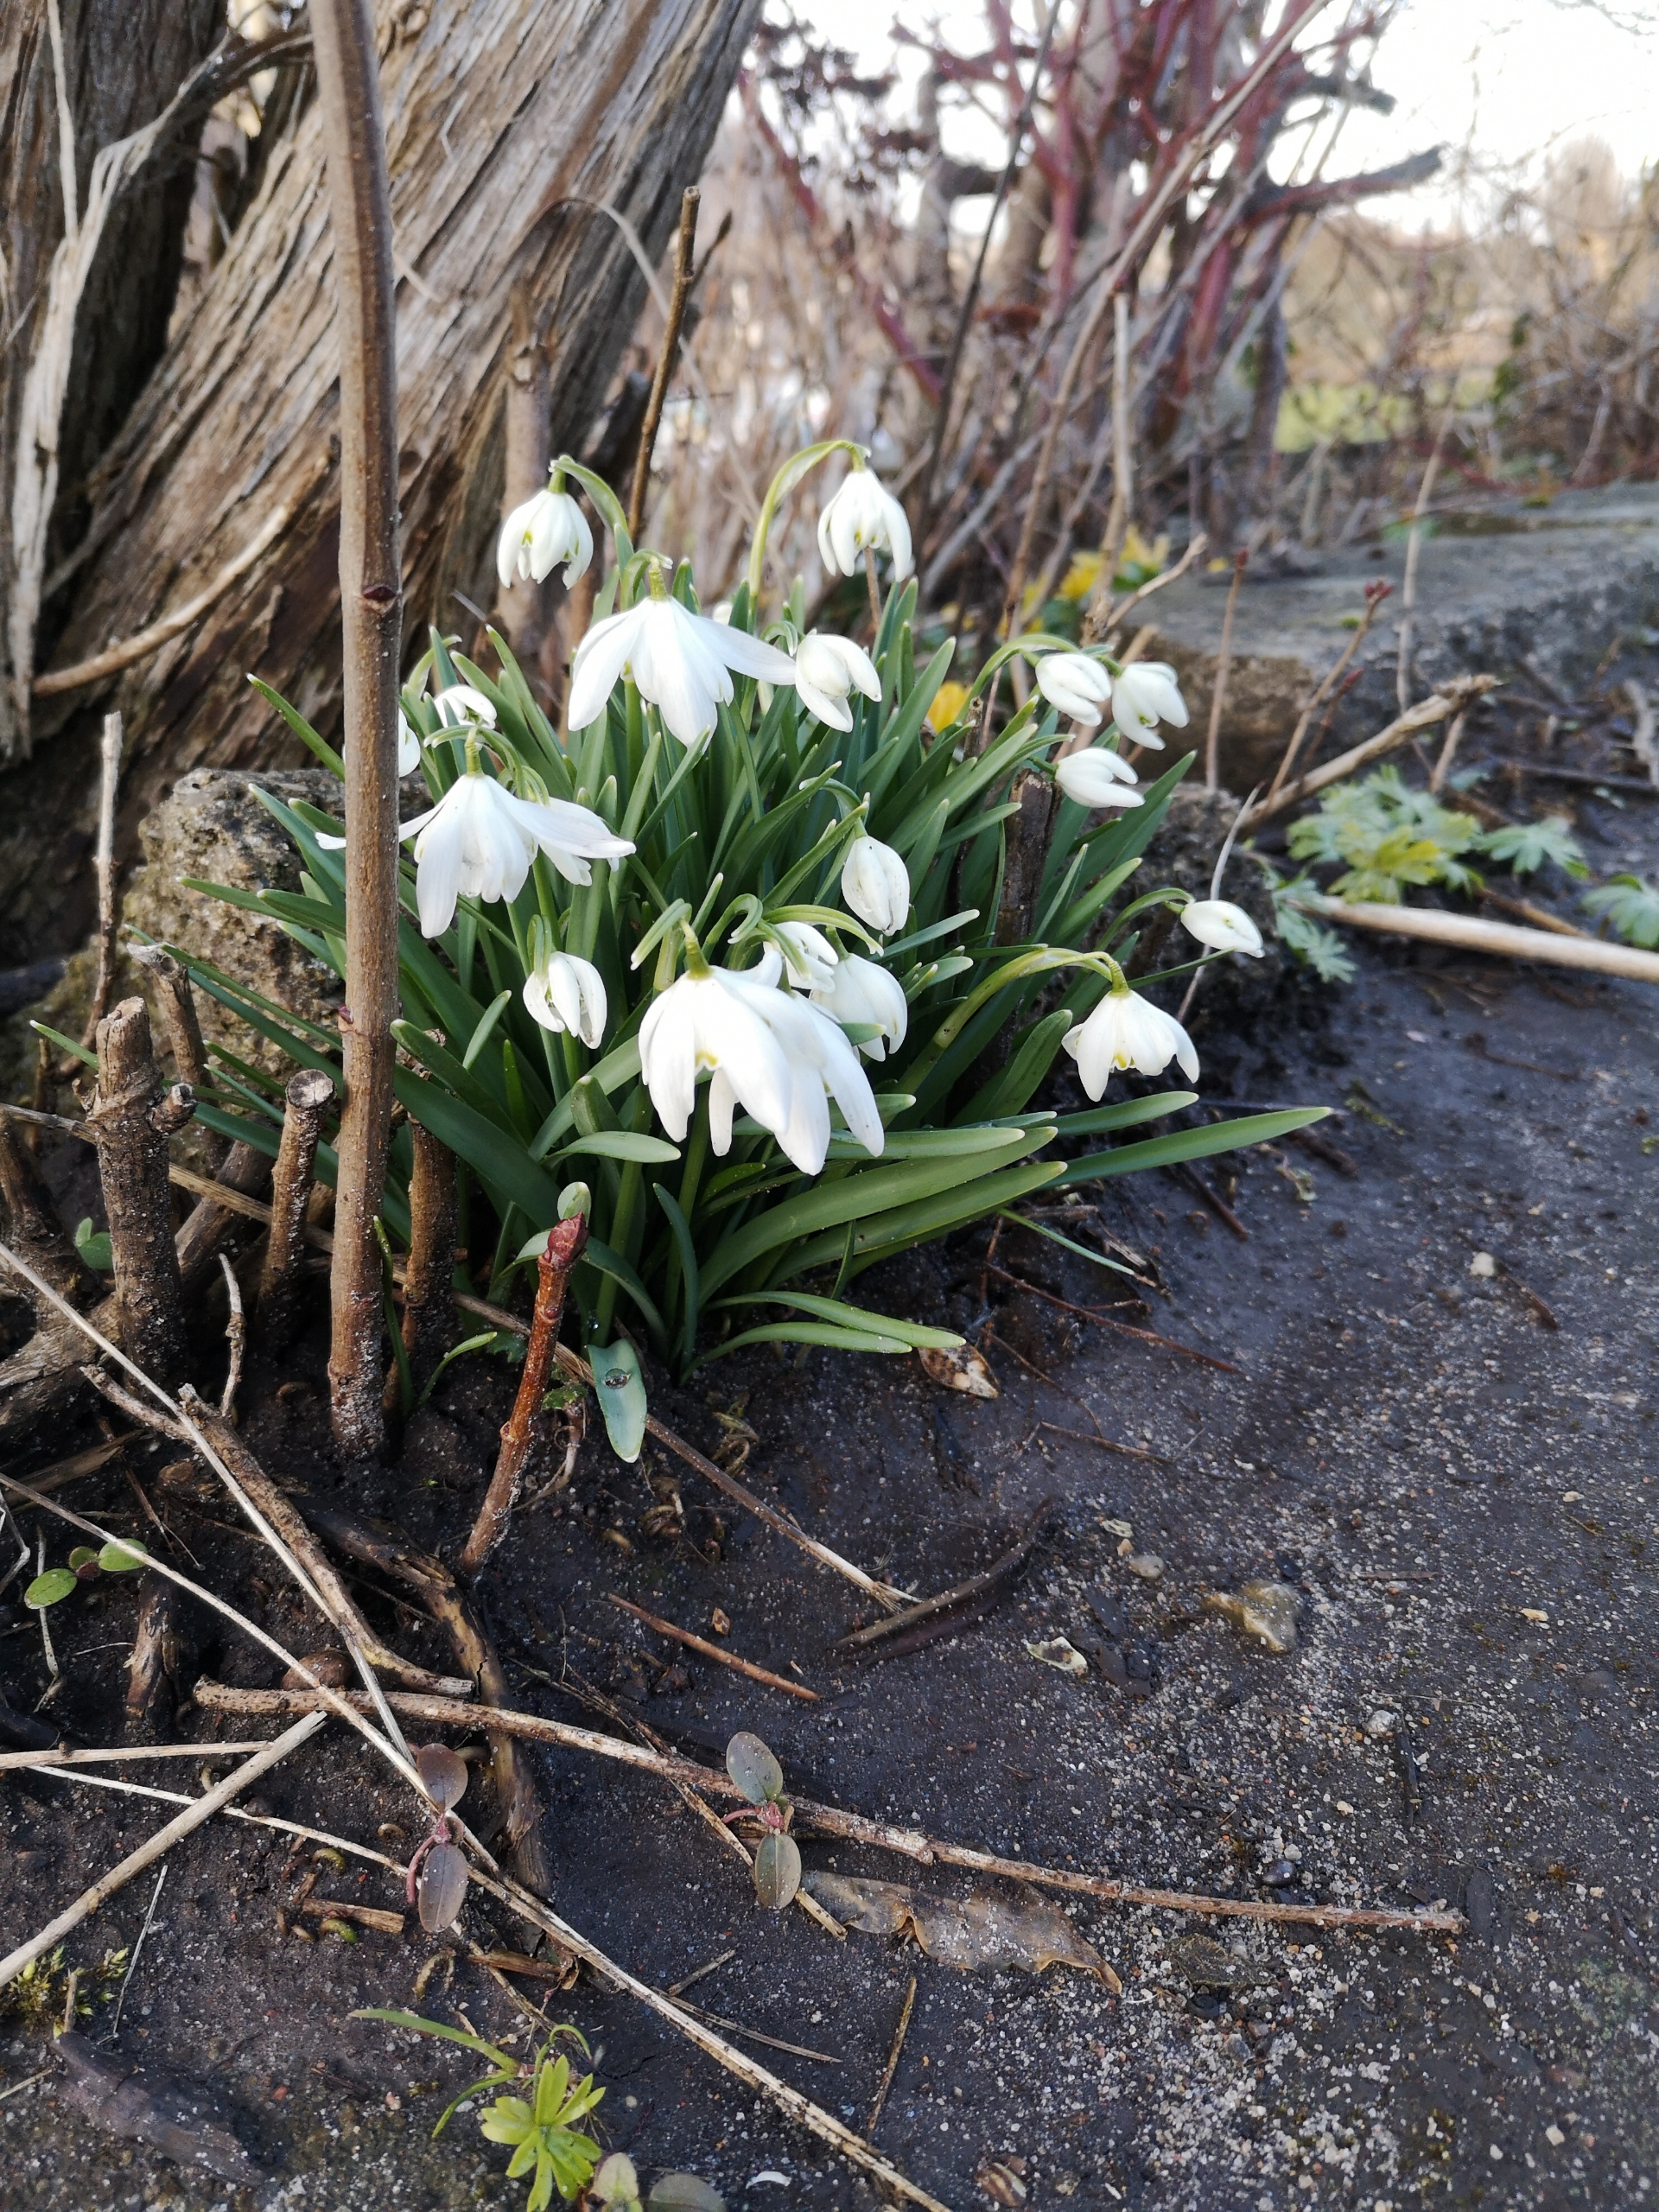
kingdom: Plantae
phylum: Tracheophyta
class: Liliopsida
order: Asparagales
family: Amaryllidaceae
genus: Galanthus
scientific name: Galanthus nivalis
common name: Vintergæk
